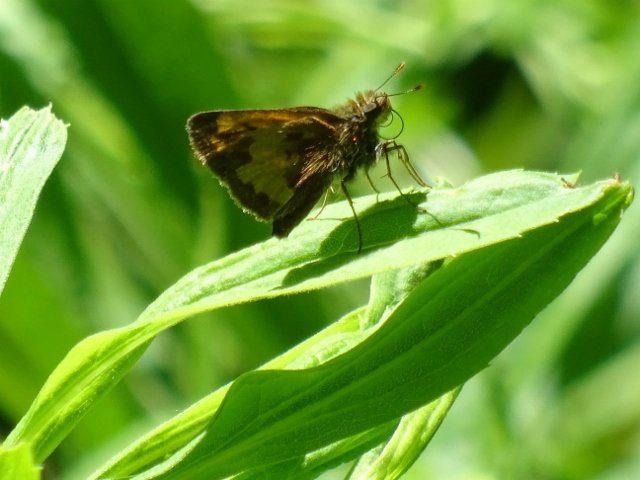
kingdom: Animalia
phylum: Arthropoda
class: Insecta
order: Lepidoptera
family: Hesperiidae
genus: Lon
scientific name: Lon hobomok
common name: Hobomok Skipper
